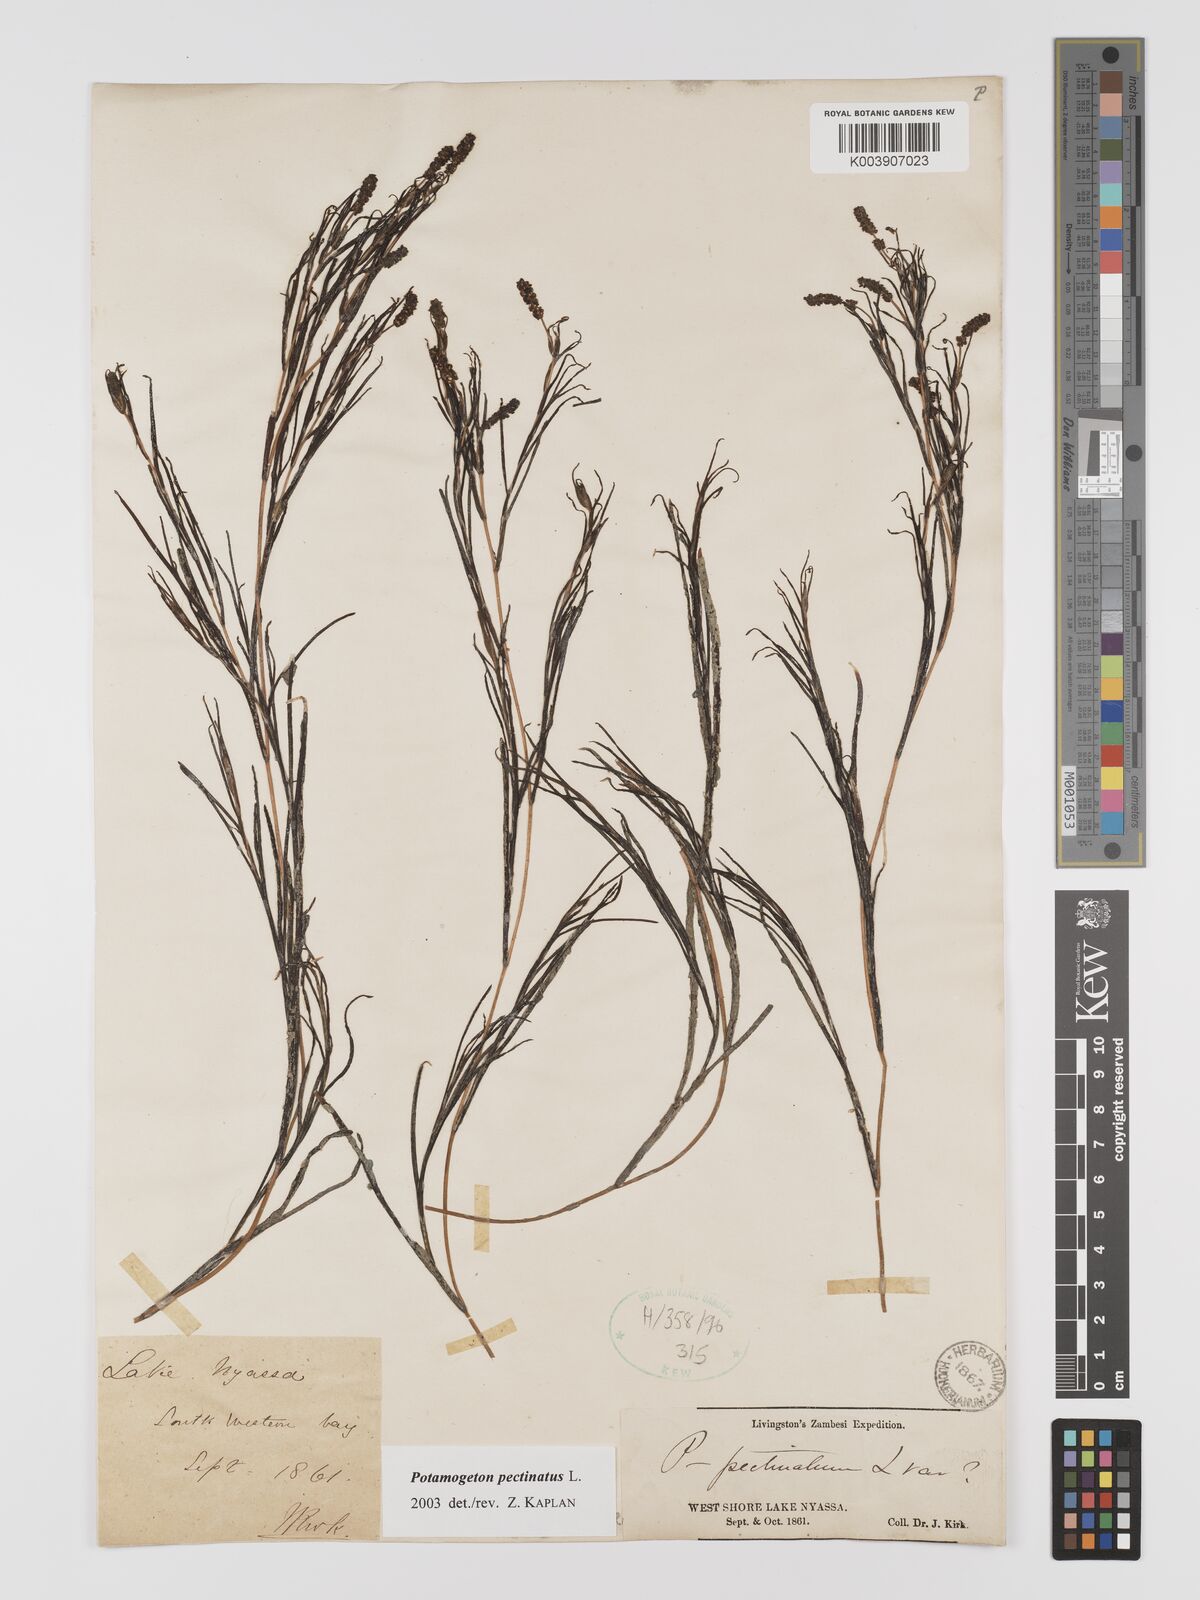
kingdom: Plantae
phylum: Tracheophyta
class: Liliopsida
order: Alismatales
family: Potamogetonaceae
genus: Stuckenia
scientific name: Stuckenia pectinata
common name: Sago pondweed
